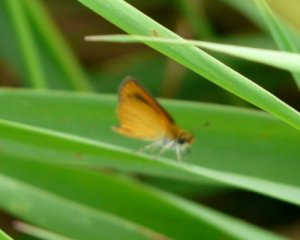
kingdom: Animalia
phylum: Arthropoda
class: Insecta
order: Lepidoptera
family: Hesperiidae
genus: Ancyloxypha
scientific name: Ancyloxypha numitor
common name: Least Skipper
